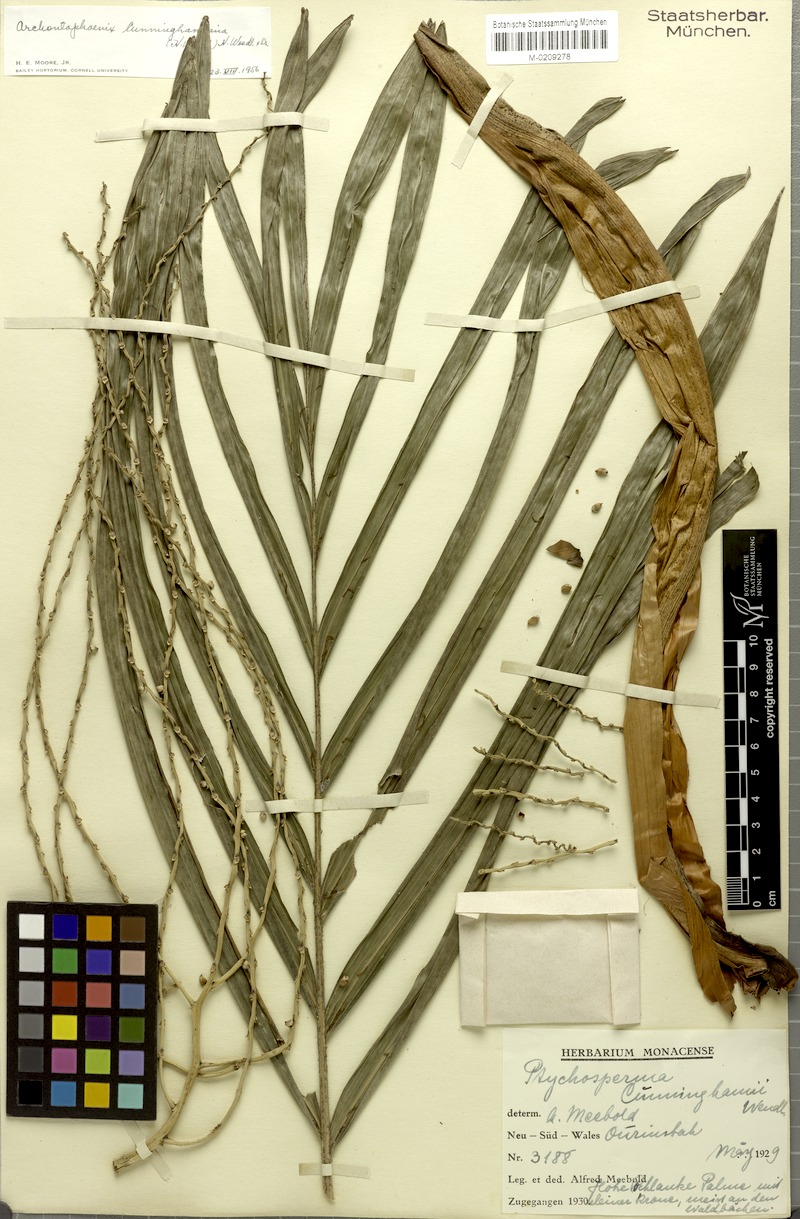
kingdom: Plantae
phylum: Tracheophyta
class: Liliopsida
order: Arecales
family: Arecaceae
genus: Archontophoenix
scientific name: Archontophoenix cunninghamiana
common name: Piccabeen bangalow palm
